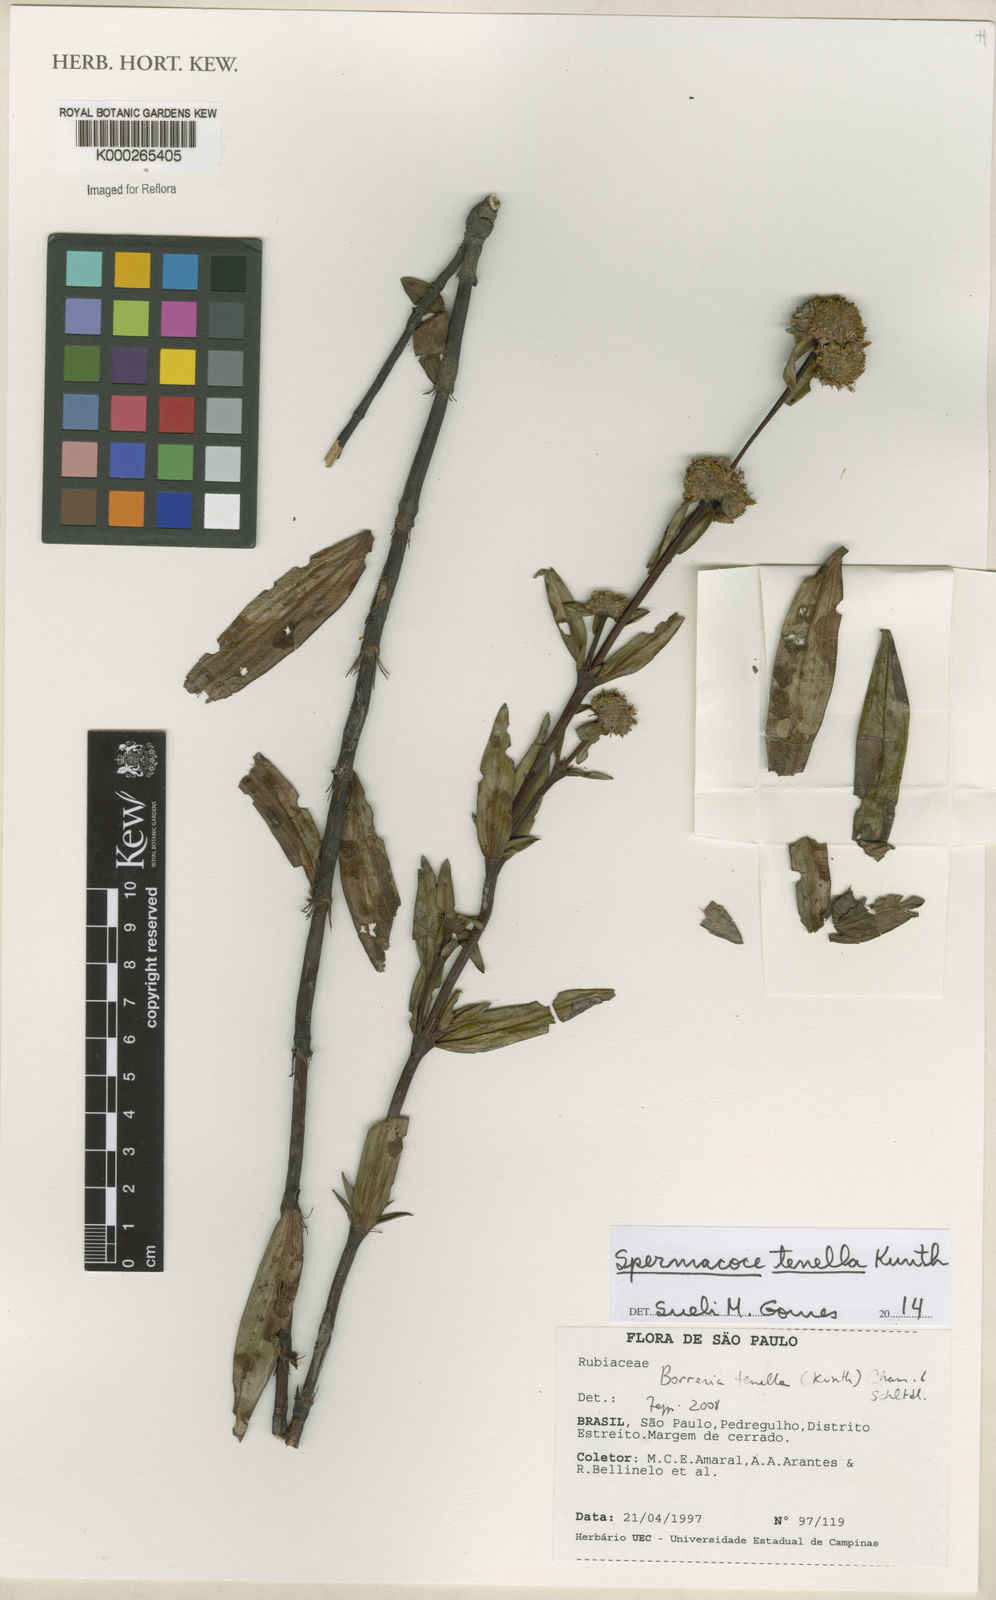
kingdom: Plantae
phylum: Tracheophyta
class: Magnoliopsida
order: Gentianales
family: Rubiaceae
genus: Spermacoce
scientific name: Spermacoce orinocensis
